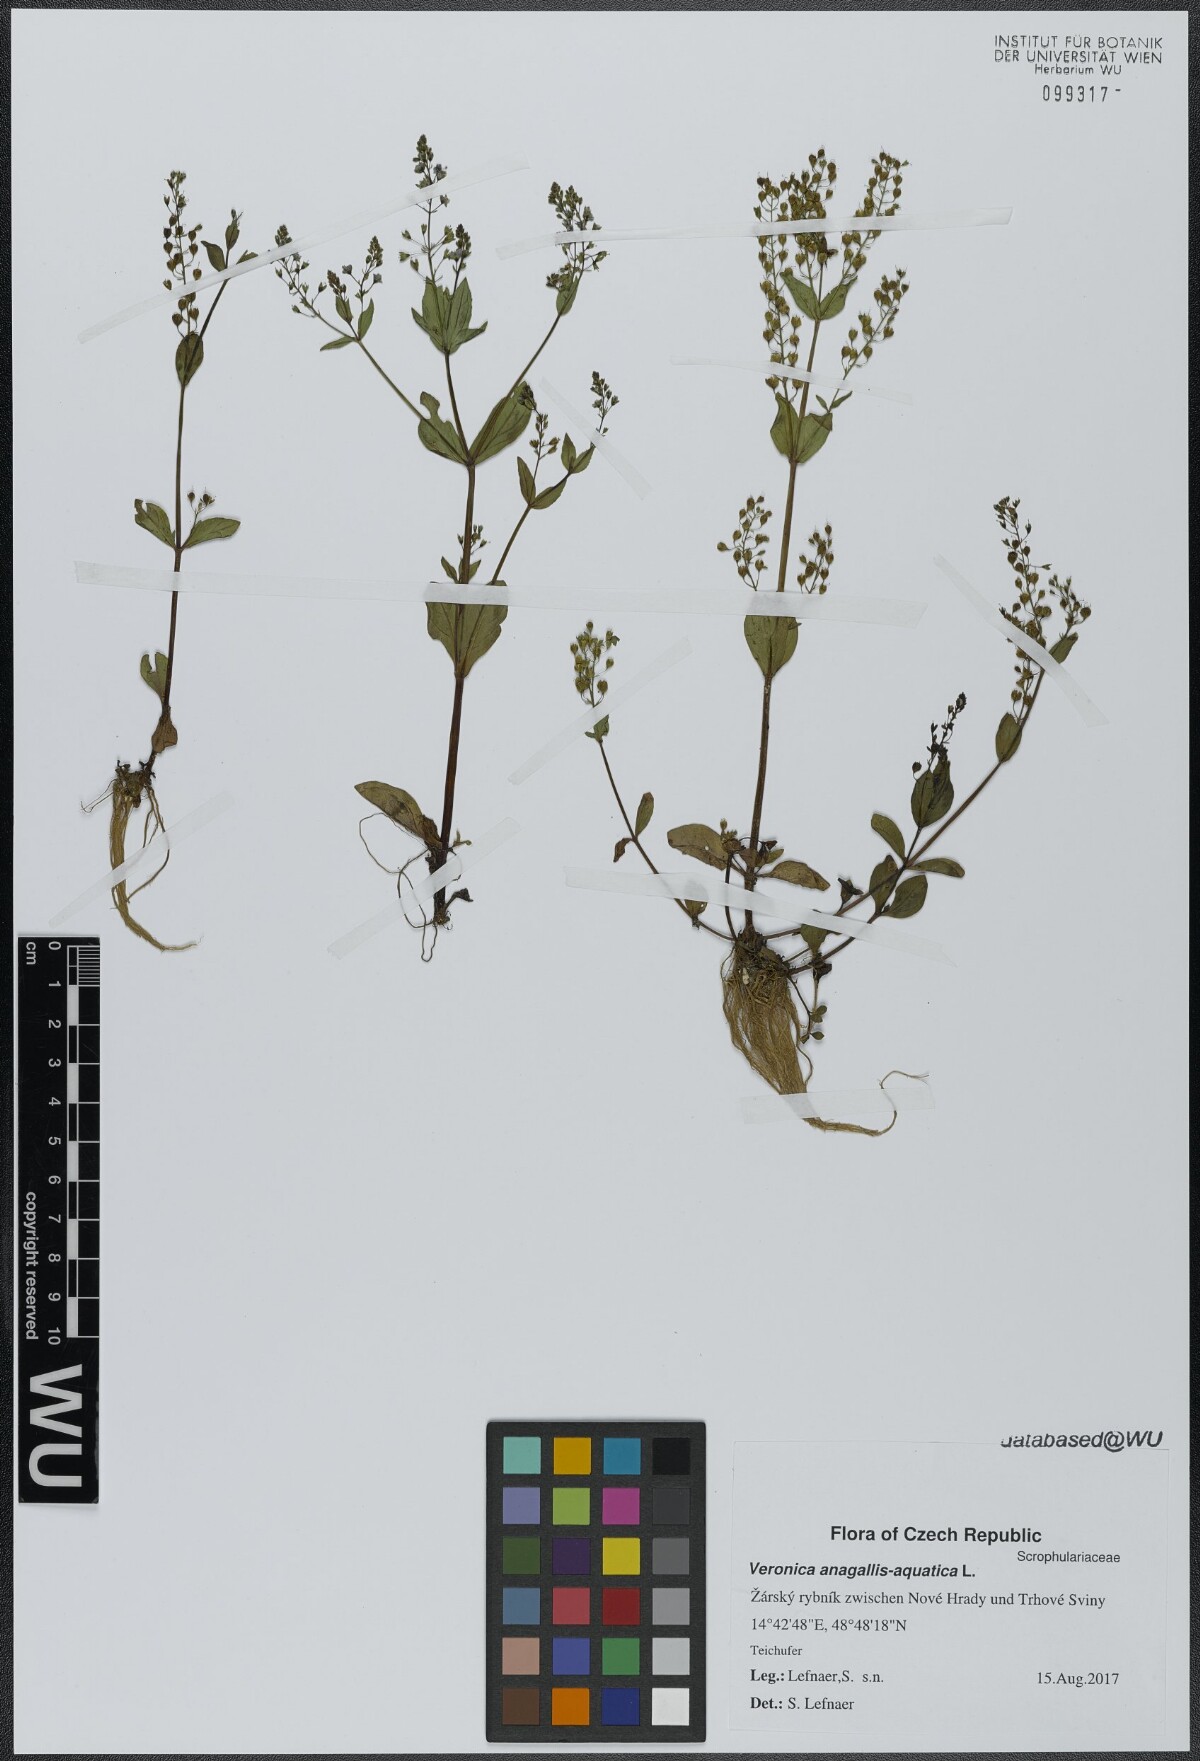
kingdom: Plantae
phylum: Tracheophyta
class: Magnoliopsida
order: Lamiales
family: Plantaginaceae
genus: Veronica
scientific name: Veronica anagallis-aquatica
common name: Water speedwell
